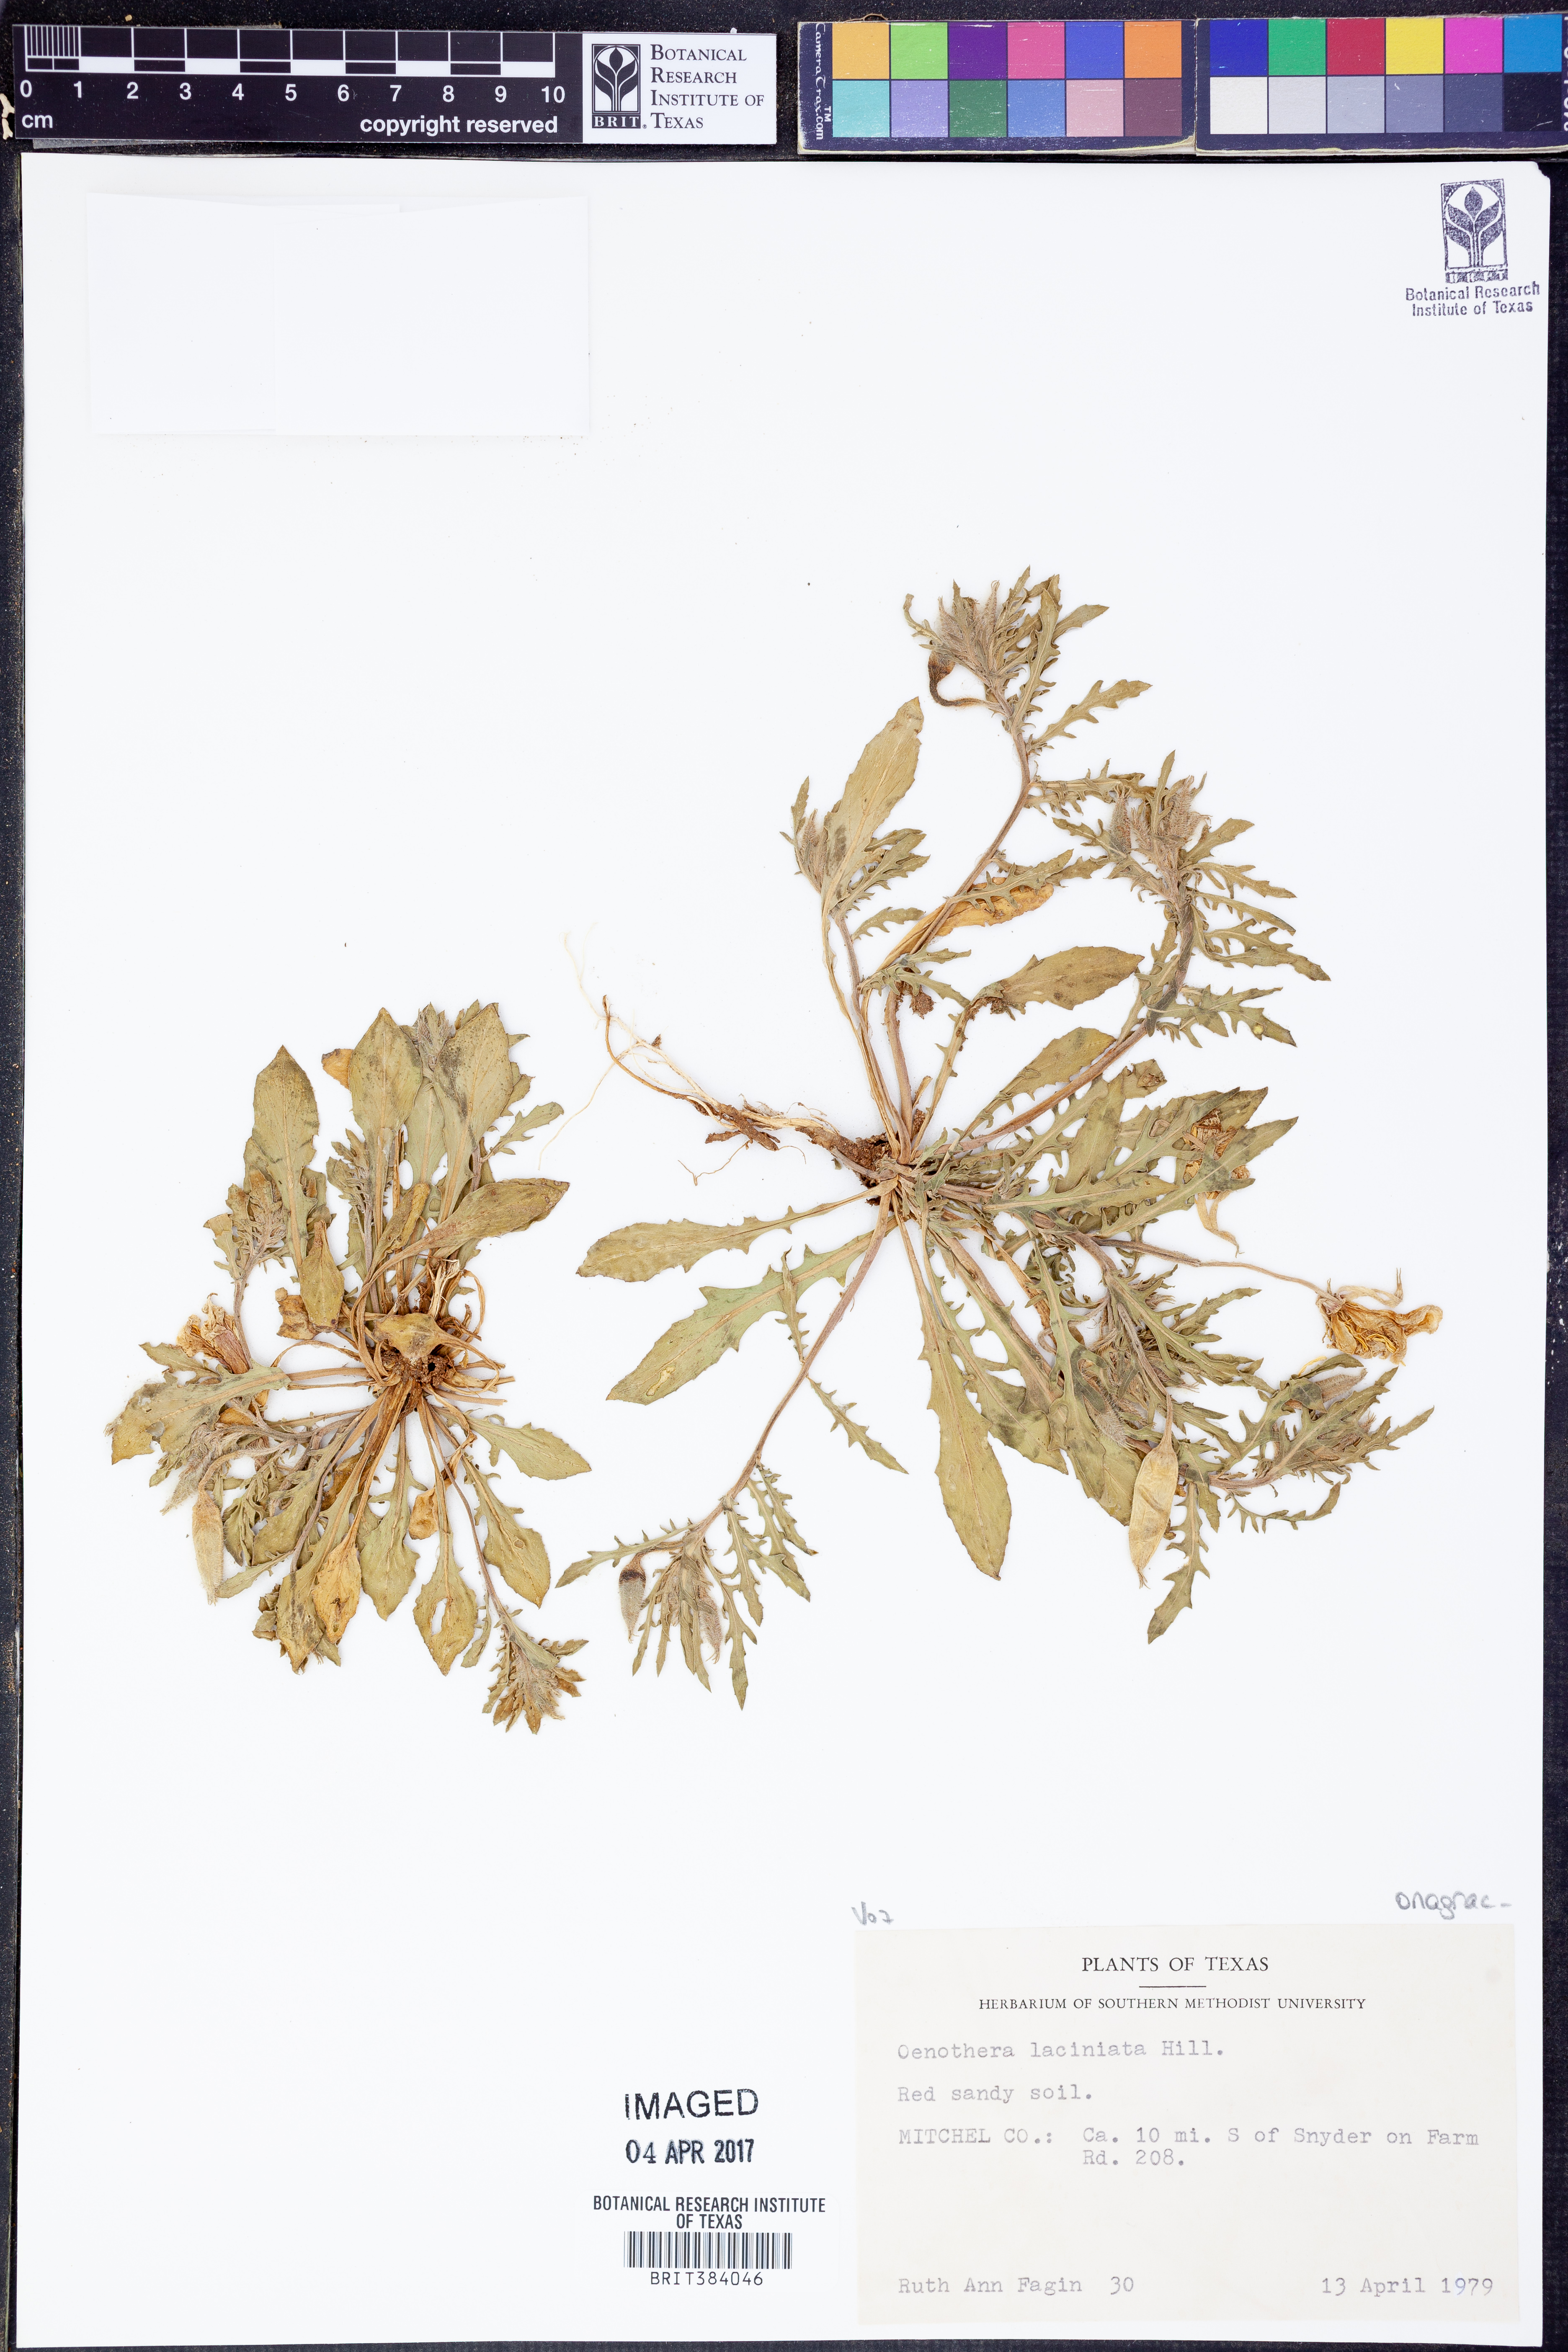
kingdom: Plantae
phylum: Tracheophyta
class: Magnoliopsida
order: Myrtales
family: Onagraceae
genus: Oenothera
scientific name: Oenothera laciniata
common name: Cut-leaved evening-primrose
